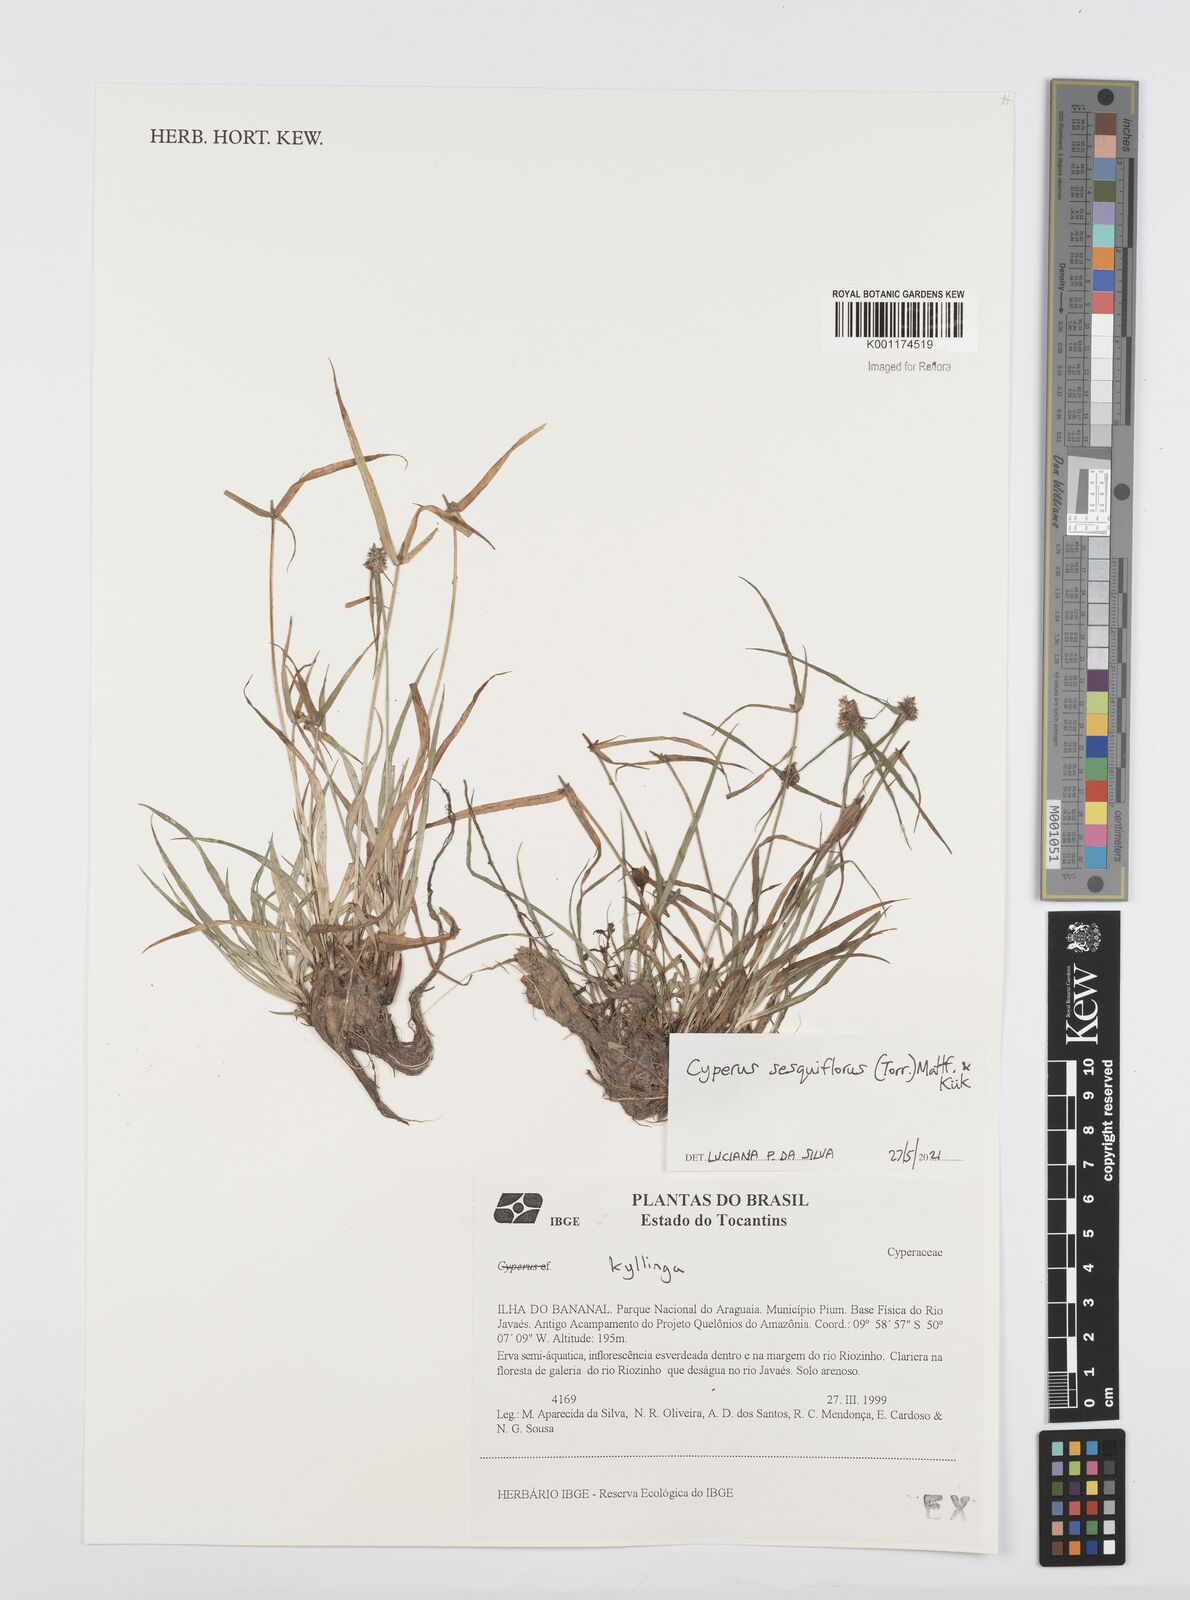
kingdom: Plantae
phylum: Tracheophyta
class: Liliopsida
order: Poales
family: Cyperaceae
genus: Cyperus
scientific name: Cyperus
